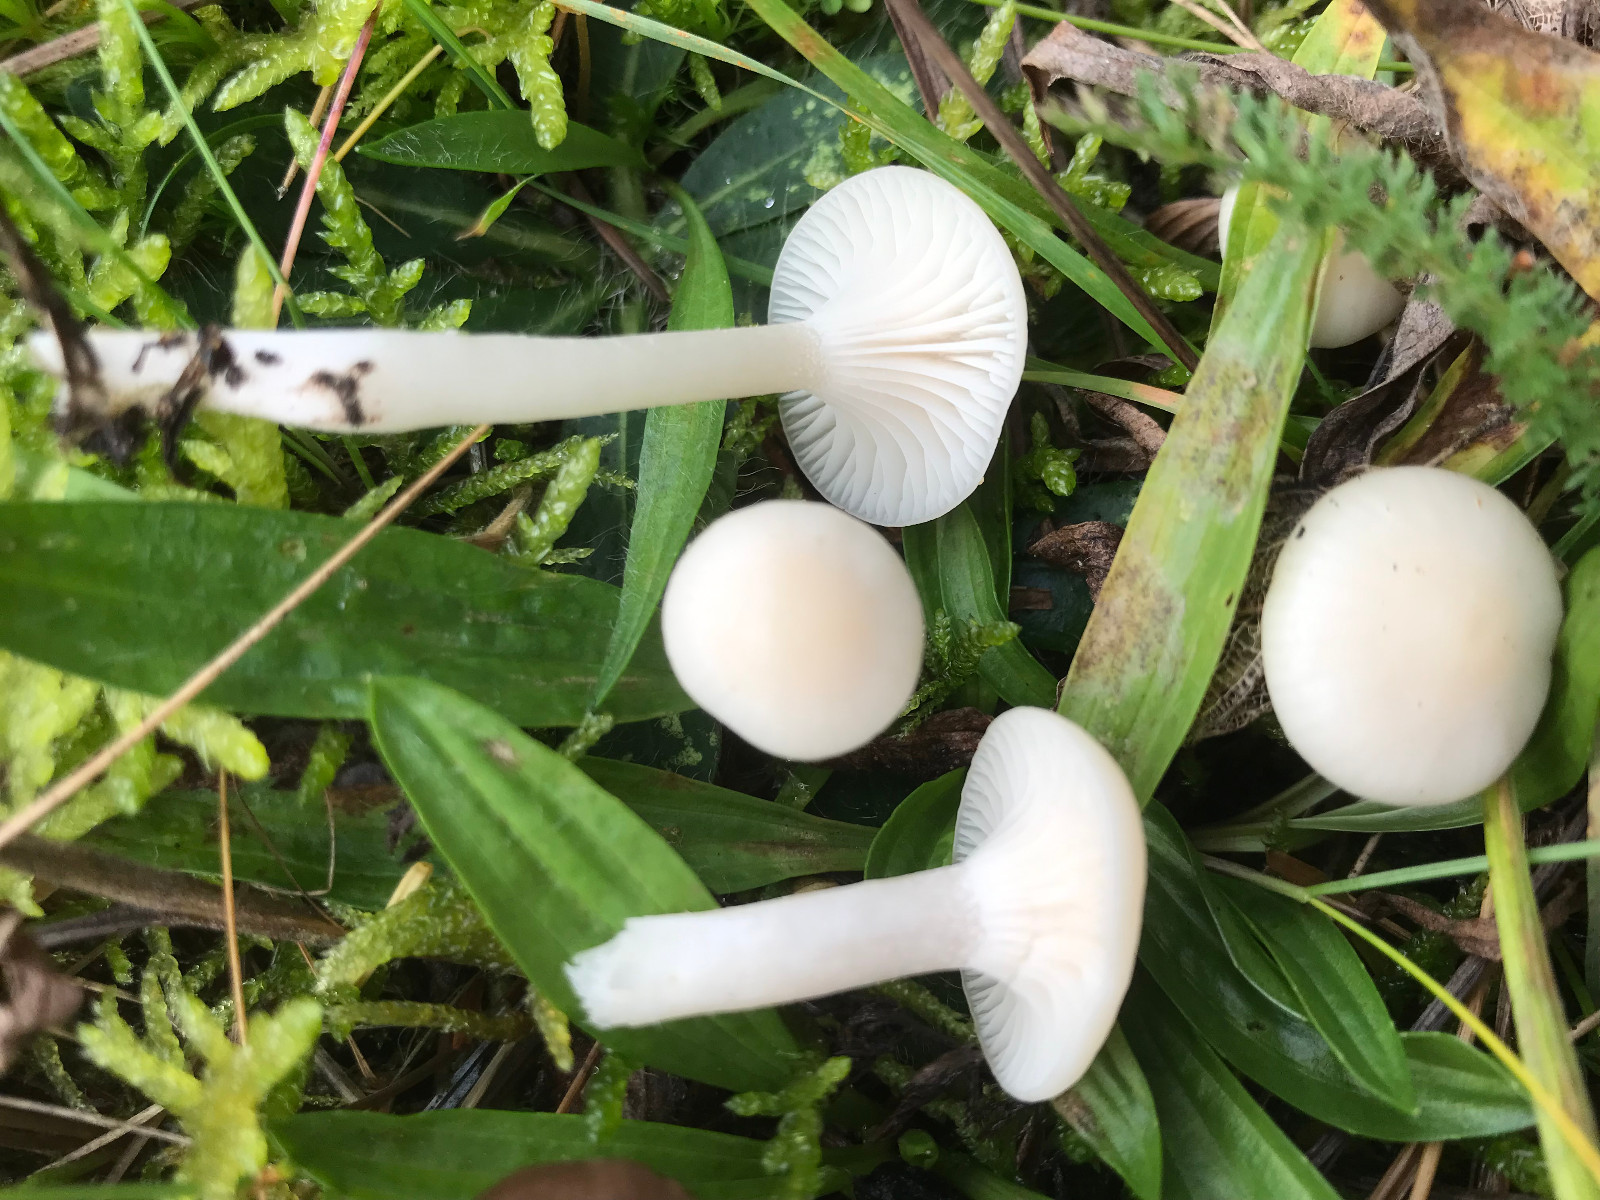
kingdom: Fungi
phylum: Basidiomycota
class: Agaricomycetes
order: Agaricales
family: Hygrophoraceae
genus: Cuphophyllus
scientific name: Cuphophyllus virgineus
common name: snehvid vokshat
